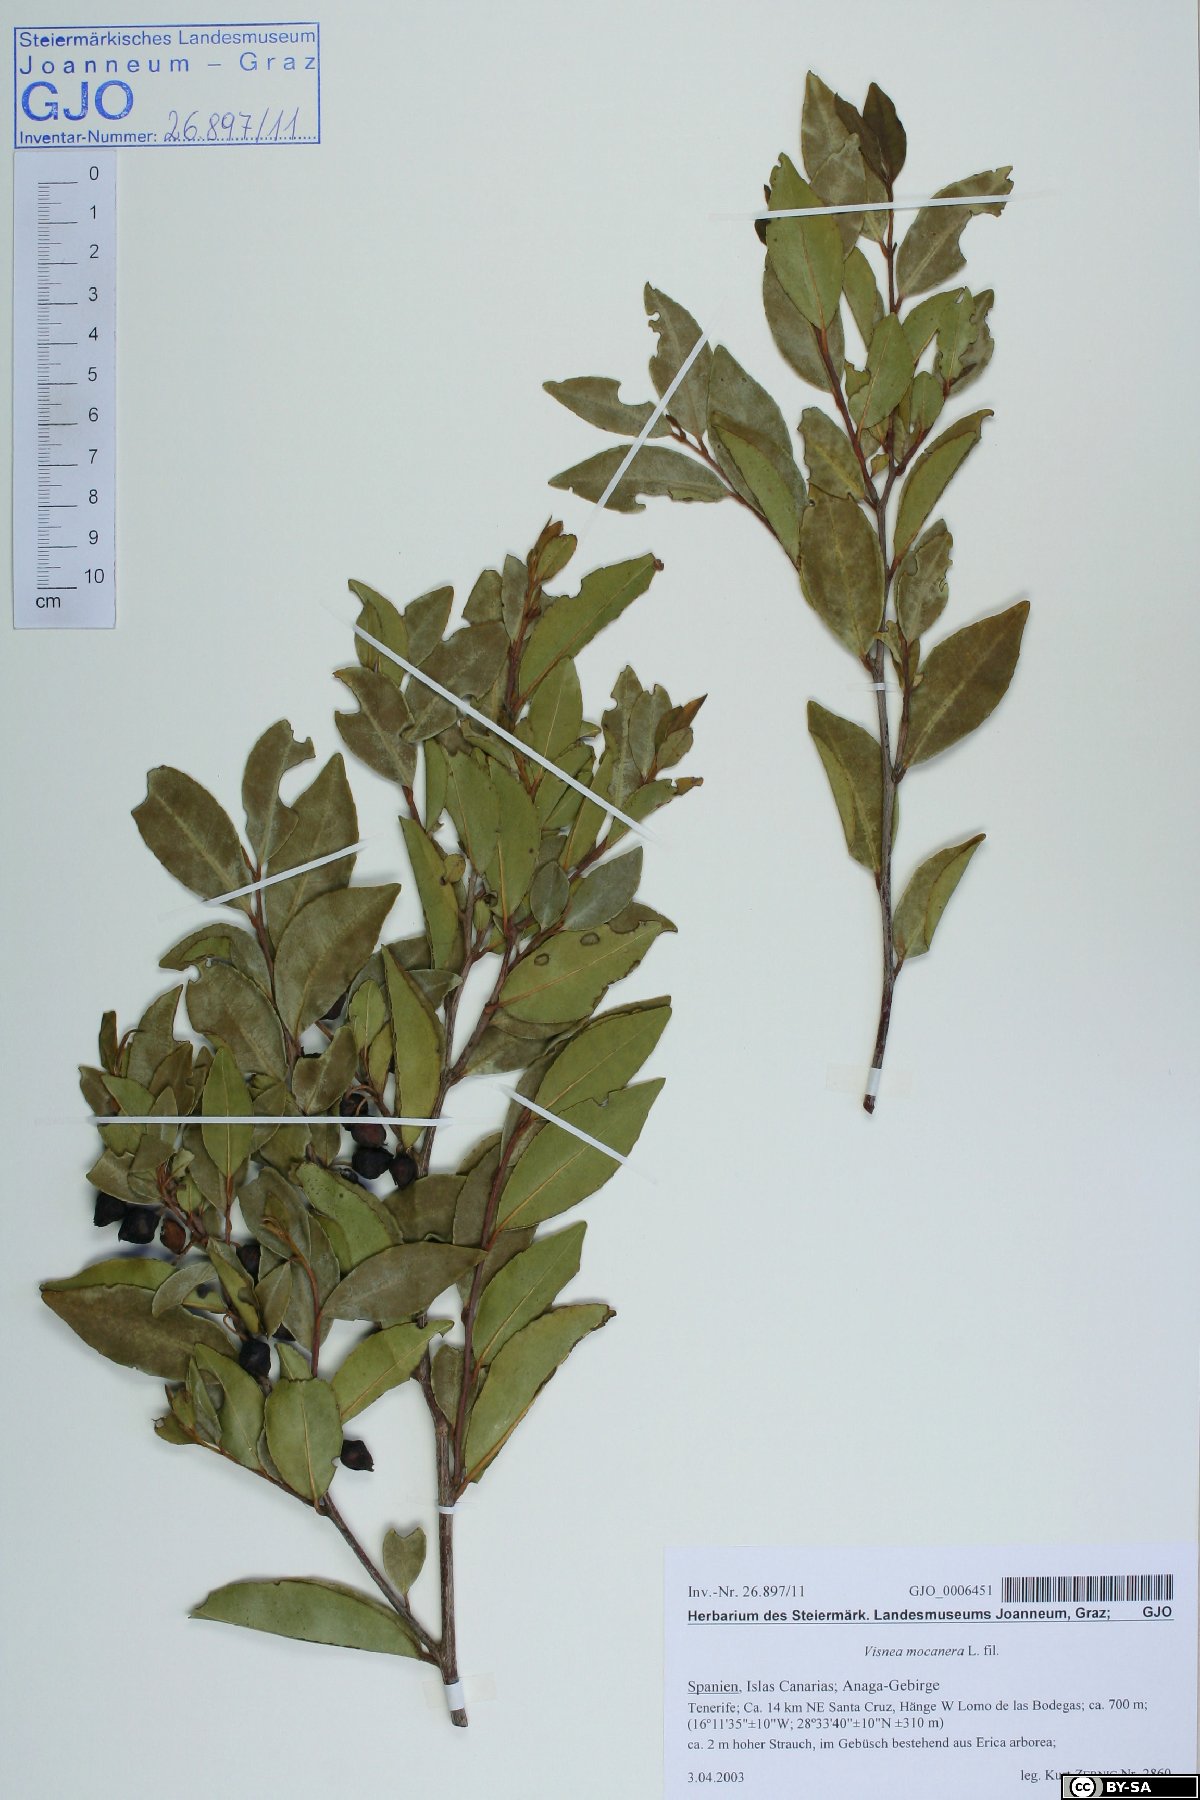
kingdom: Plantae
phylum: Tracheophyta
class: Magnoliopsida
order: Ericales
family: Pentaphylacaceae
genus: Visnea
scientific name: Visnea mocanera
